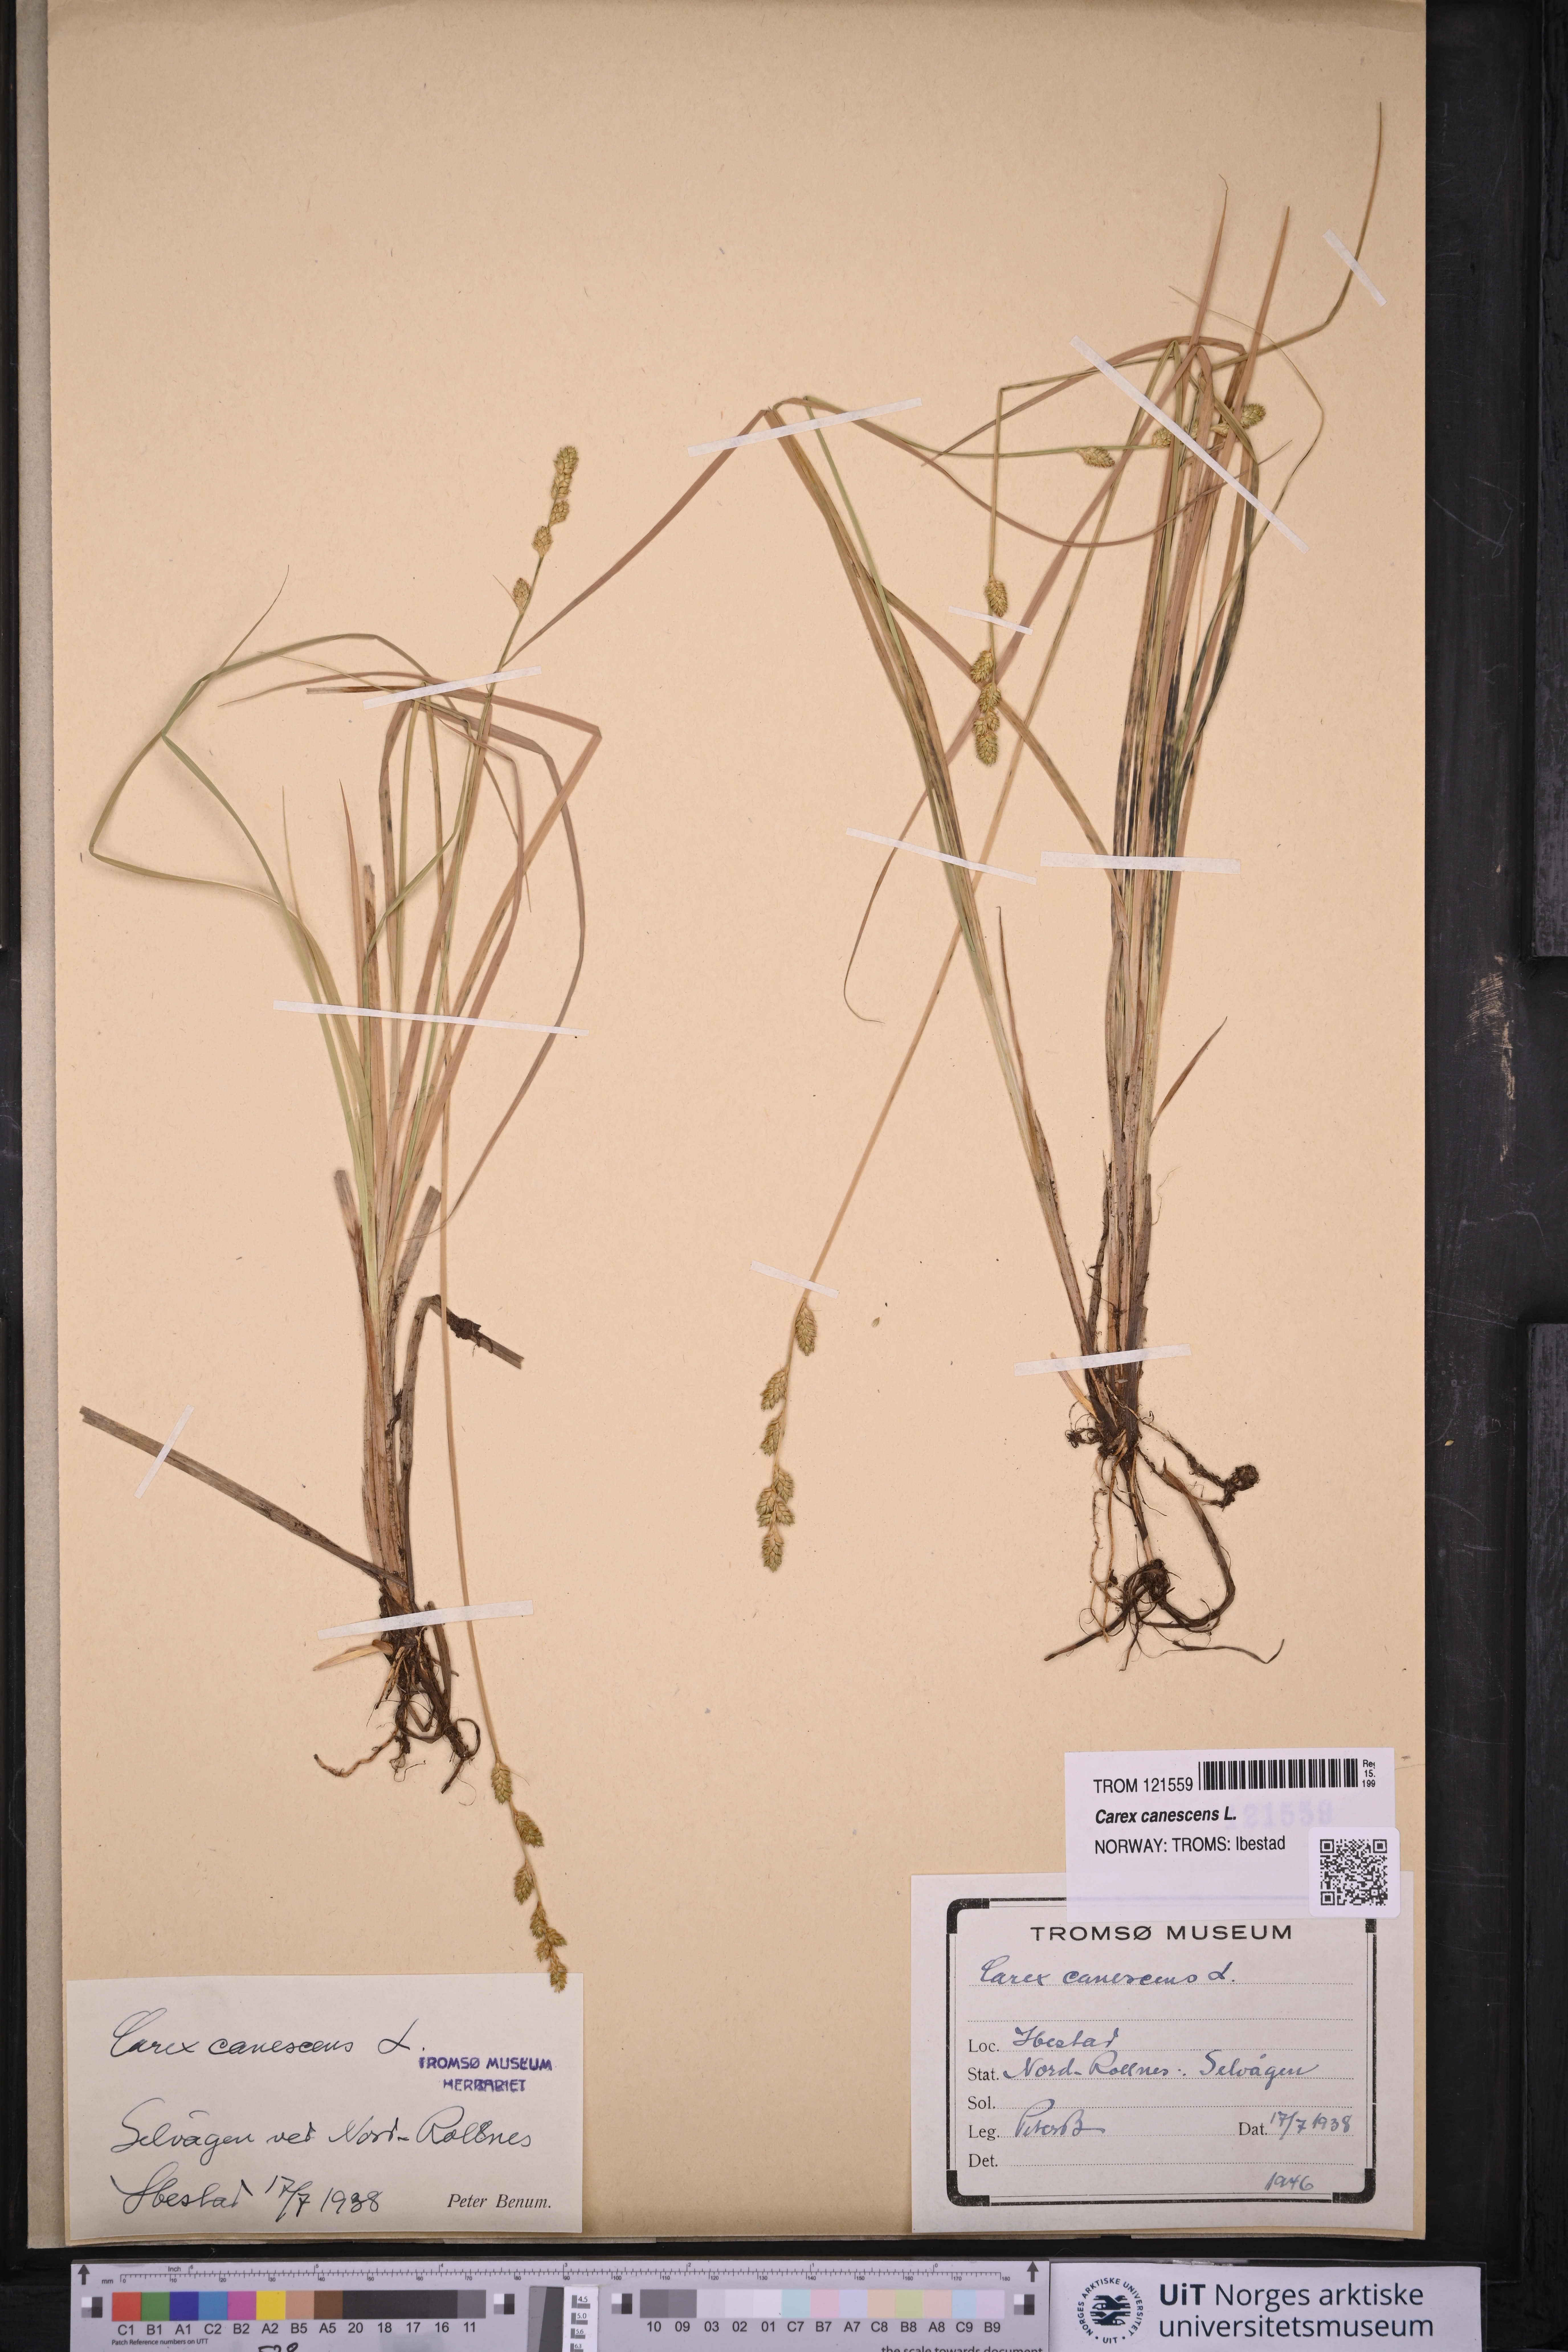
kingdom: Plantae
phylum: Tracheophyta
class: Liliopsida
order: Poales
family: Cyperaceae
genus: Carex
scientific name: Carex canescens
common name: White sedge
